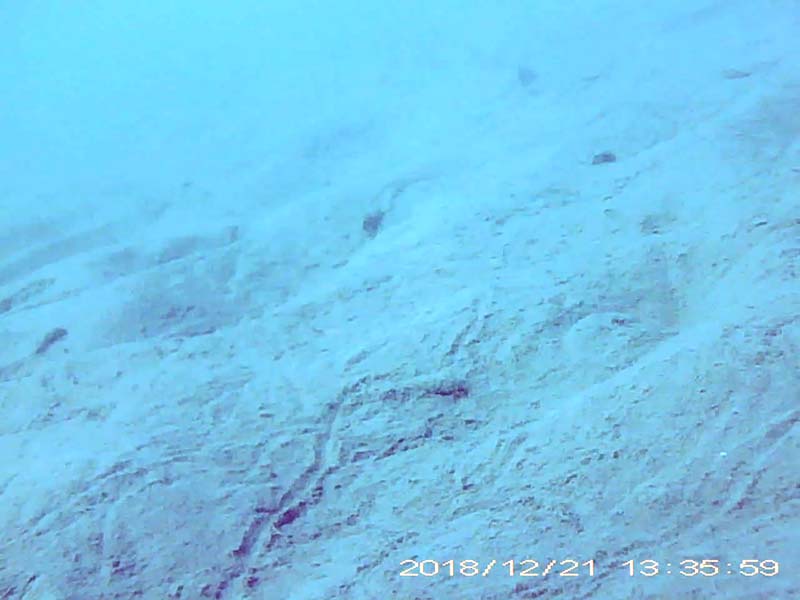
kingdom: Animalia
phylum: Chordata
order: Perciformes
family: Gobiidae
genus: Rhinogobius
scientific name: Rhinogobius
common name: ヨシノボリ
